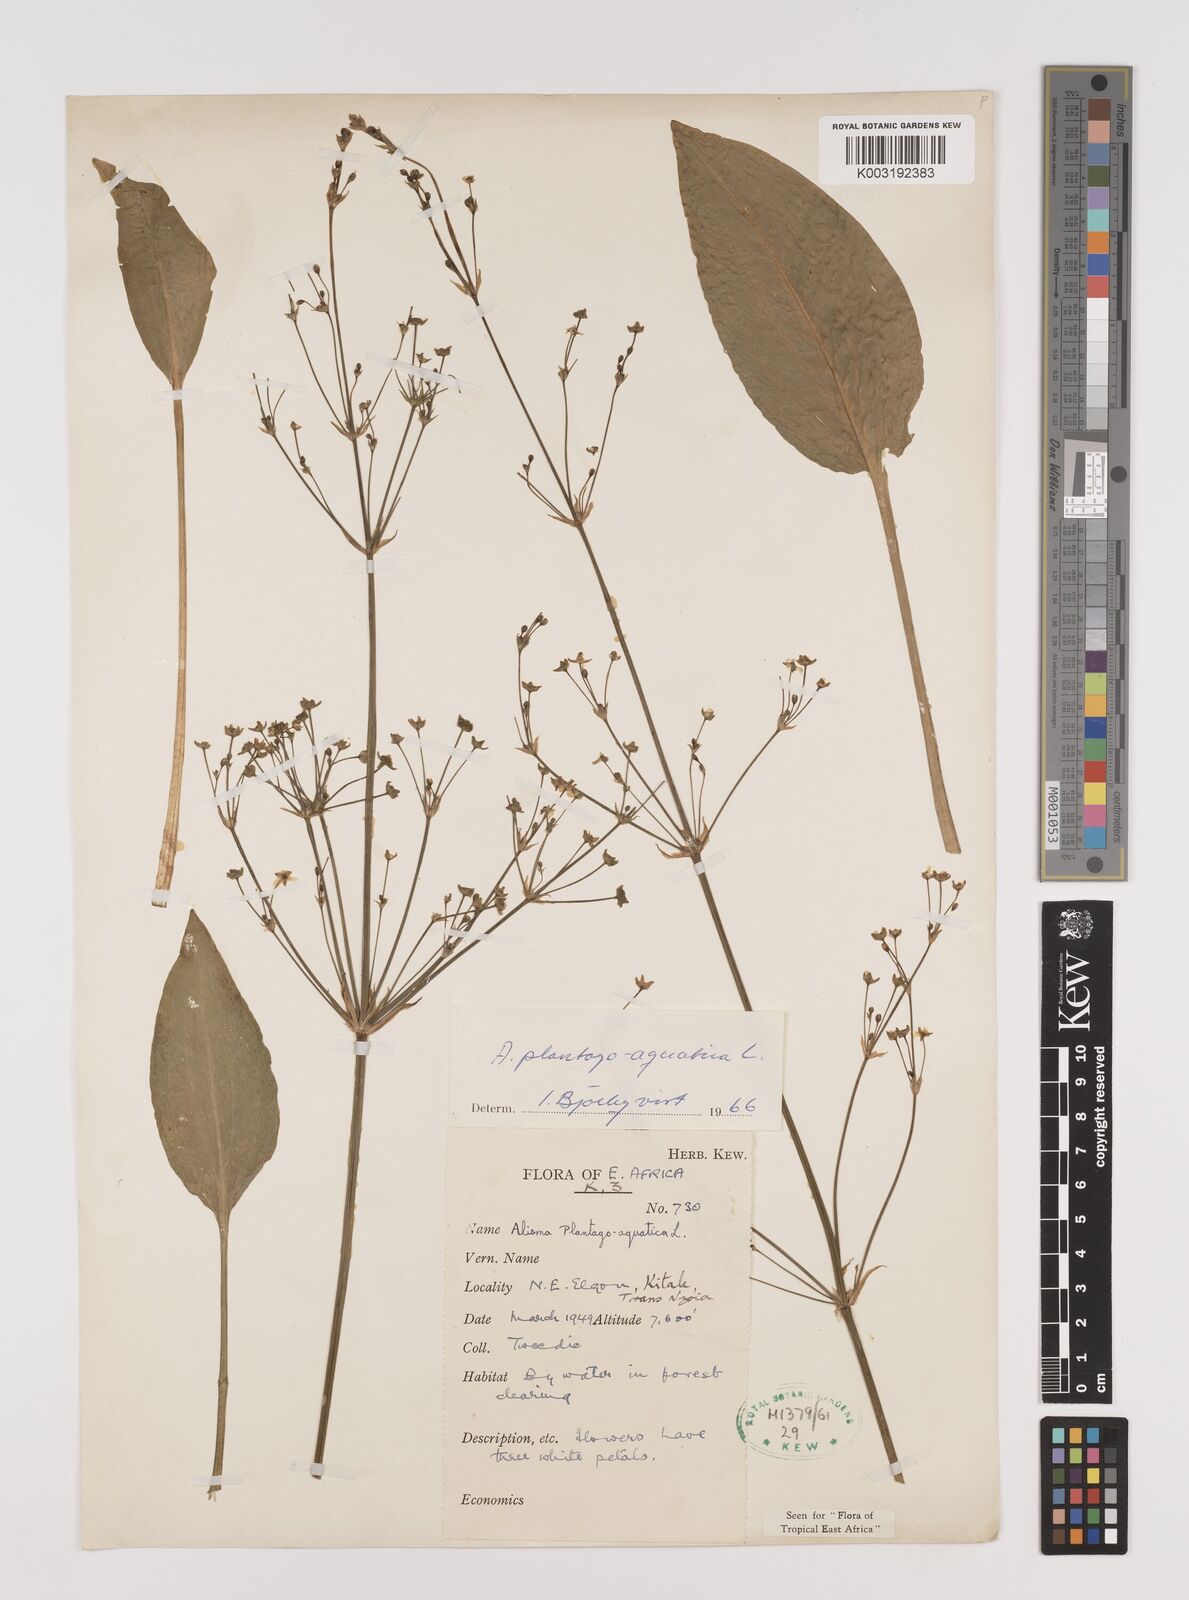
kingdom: Plantae
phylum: Tracheophyta
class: Liliopsida
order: Alismatales
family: Alismataceae
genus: Alisma
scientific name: Alisma plantago-aquatica
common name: Water-plantain
